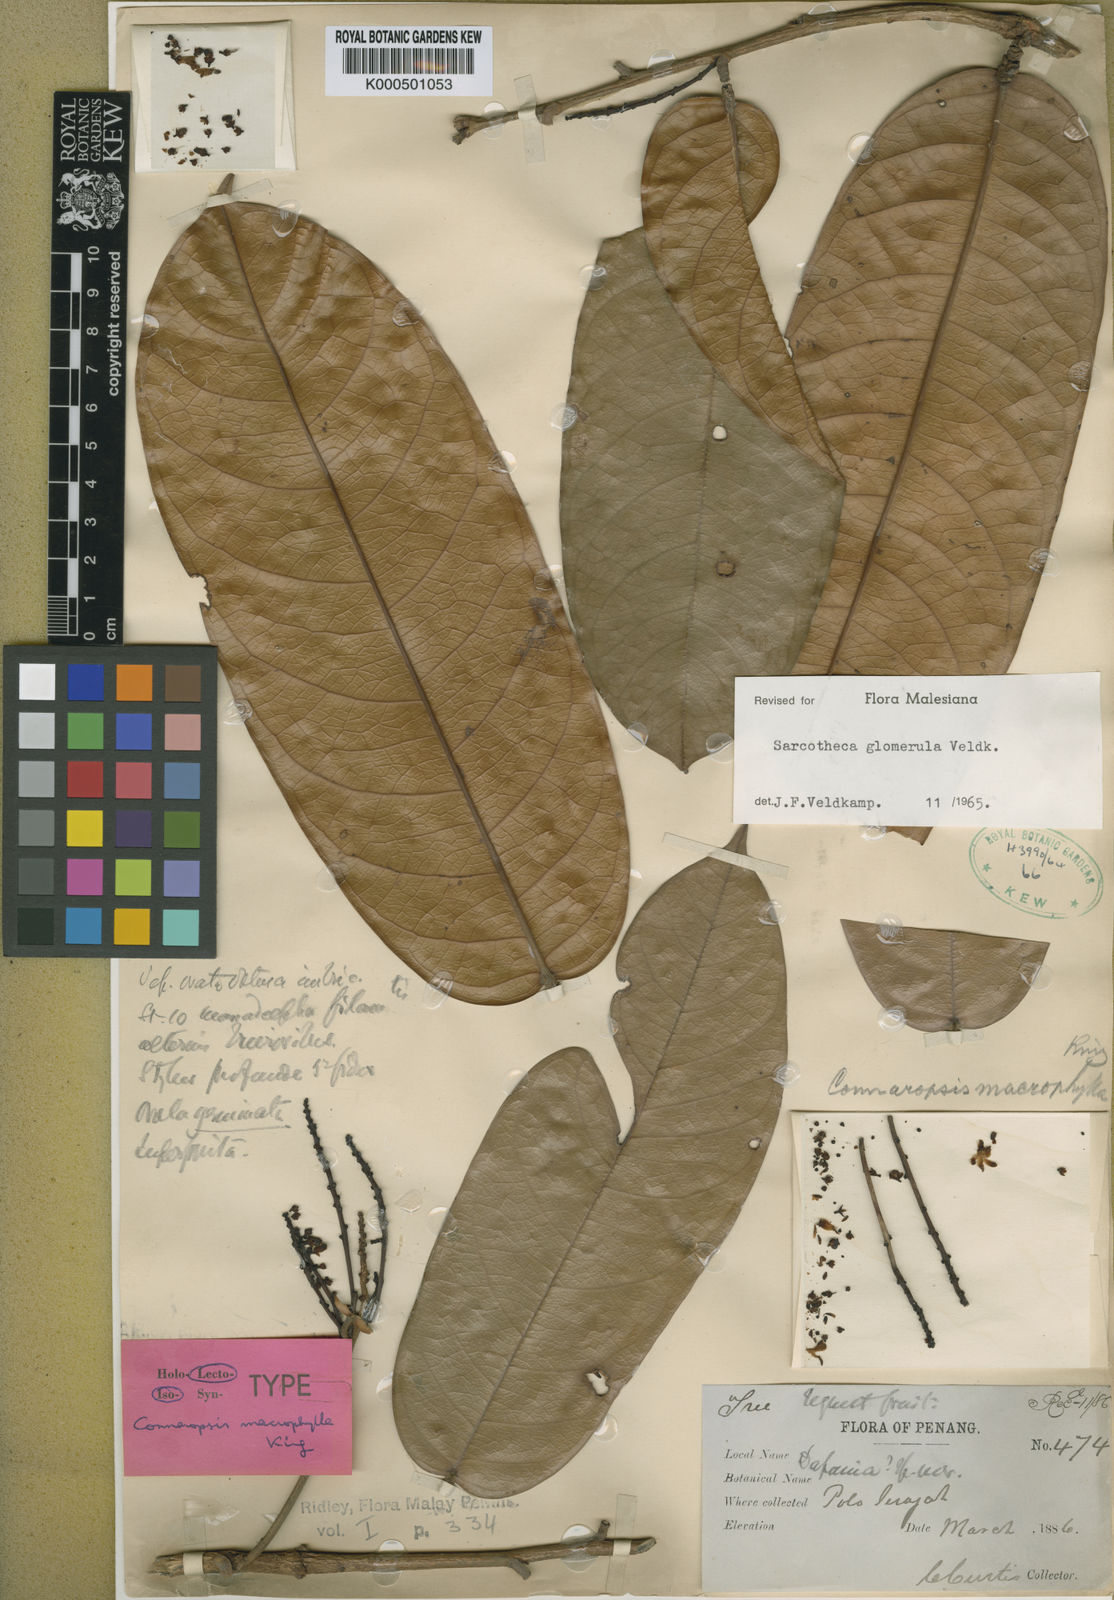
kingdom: Plantae
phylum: Tracheophyta
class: Magnoliopsida
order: Oxalidales
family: Oxalidaceae
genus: Sarcotheca
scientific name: Sarcotheca glomerula
